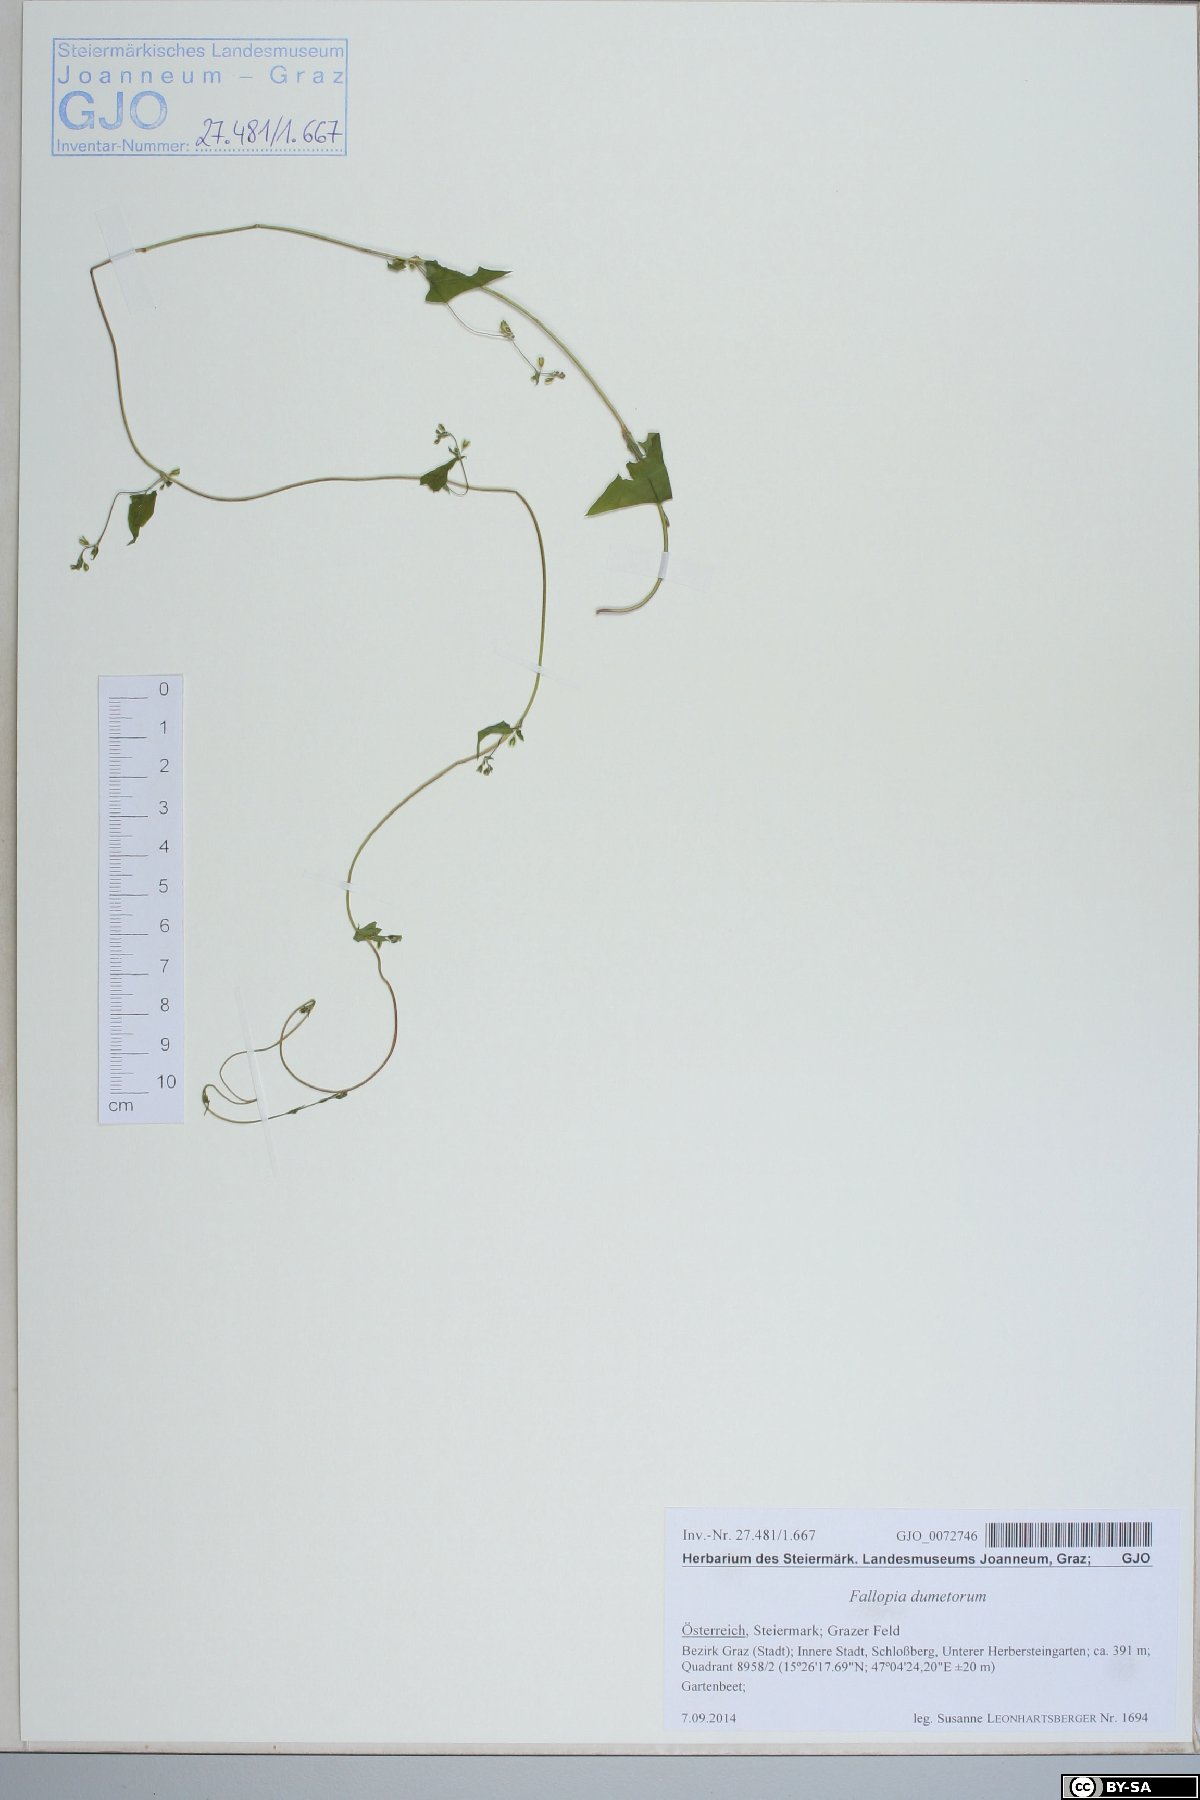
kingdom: Plantae
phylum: Tracheophyta
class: Magnoliopsida
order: Caryophyllales
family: Polygonaceae
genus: Fallopia
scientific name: Fallopia dumetorum
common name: Copse-bindweed
